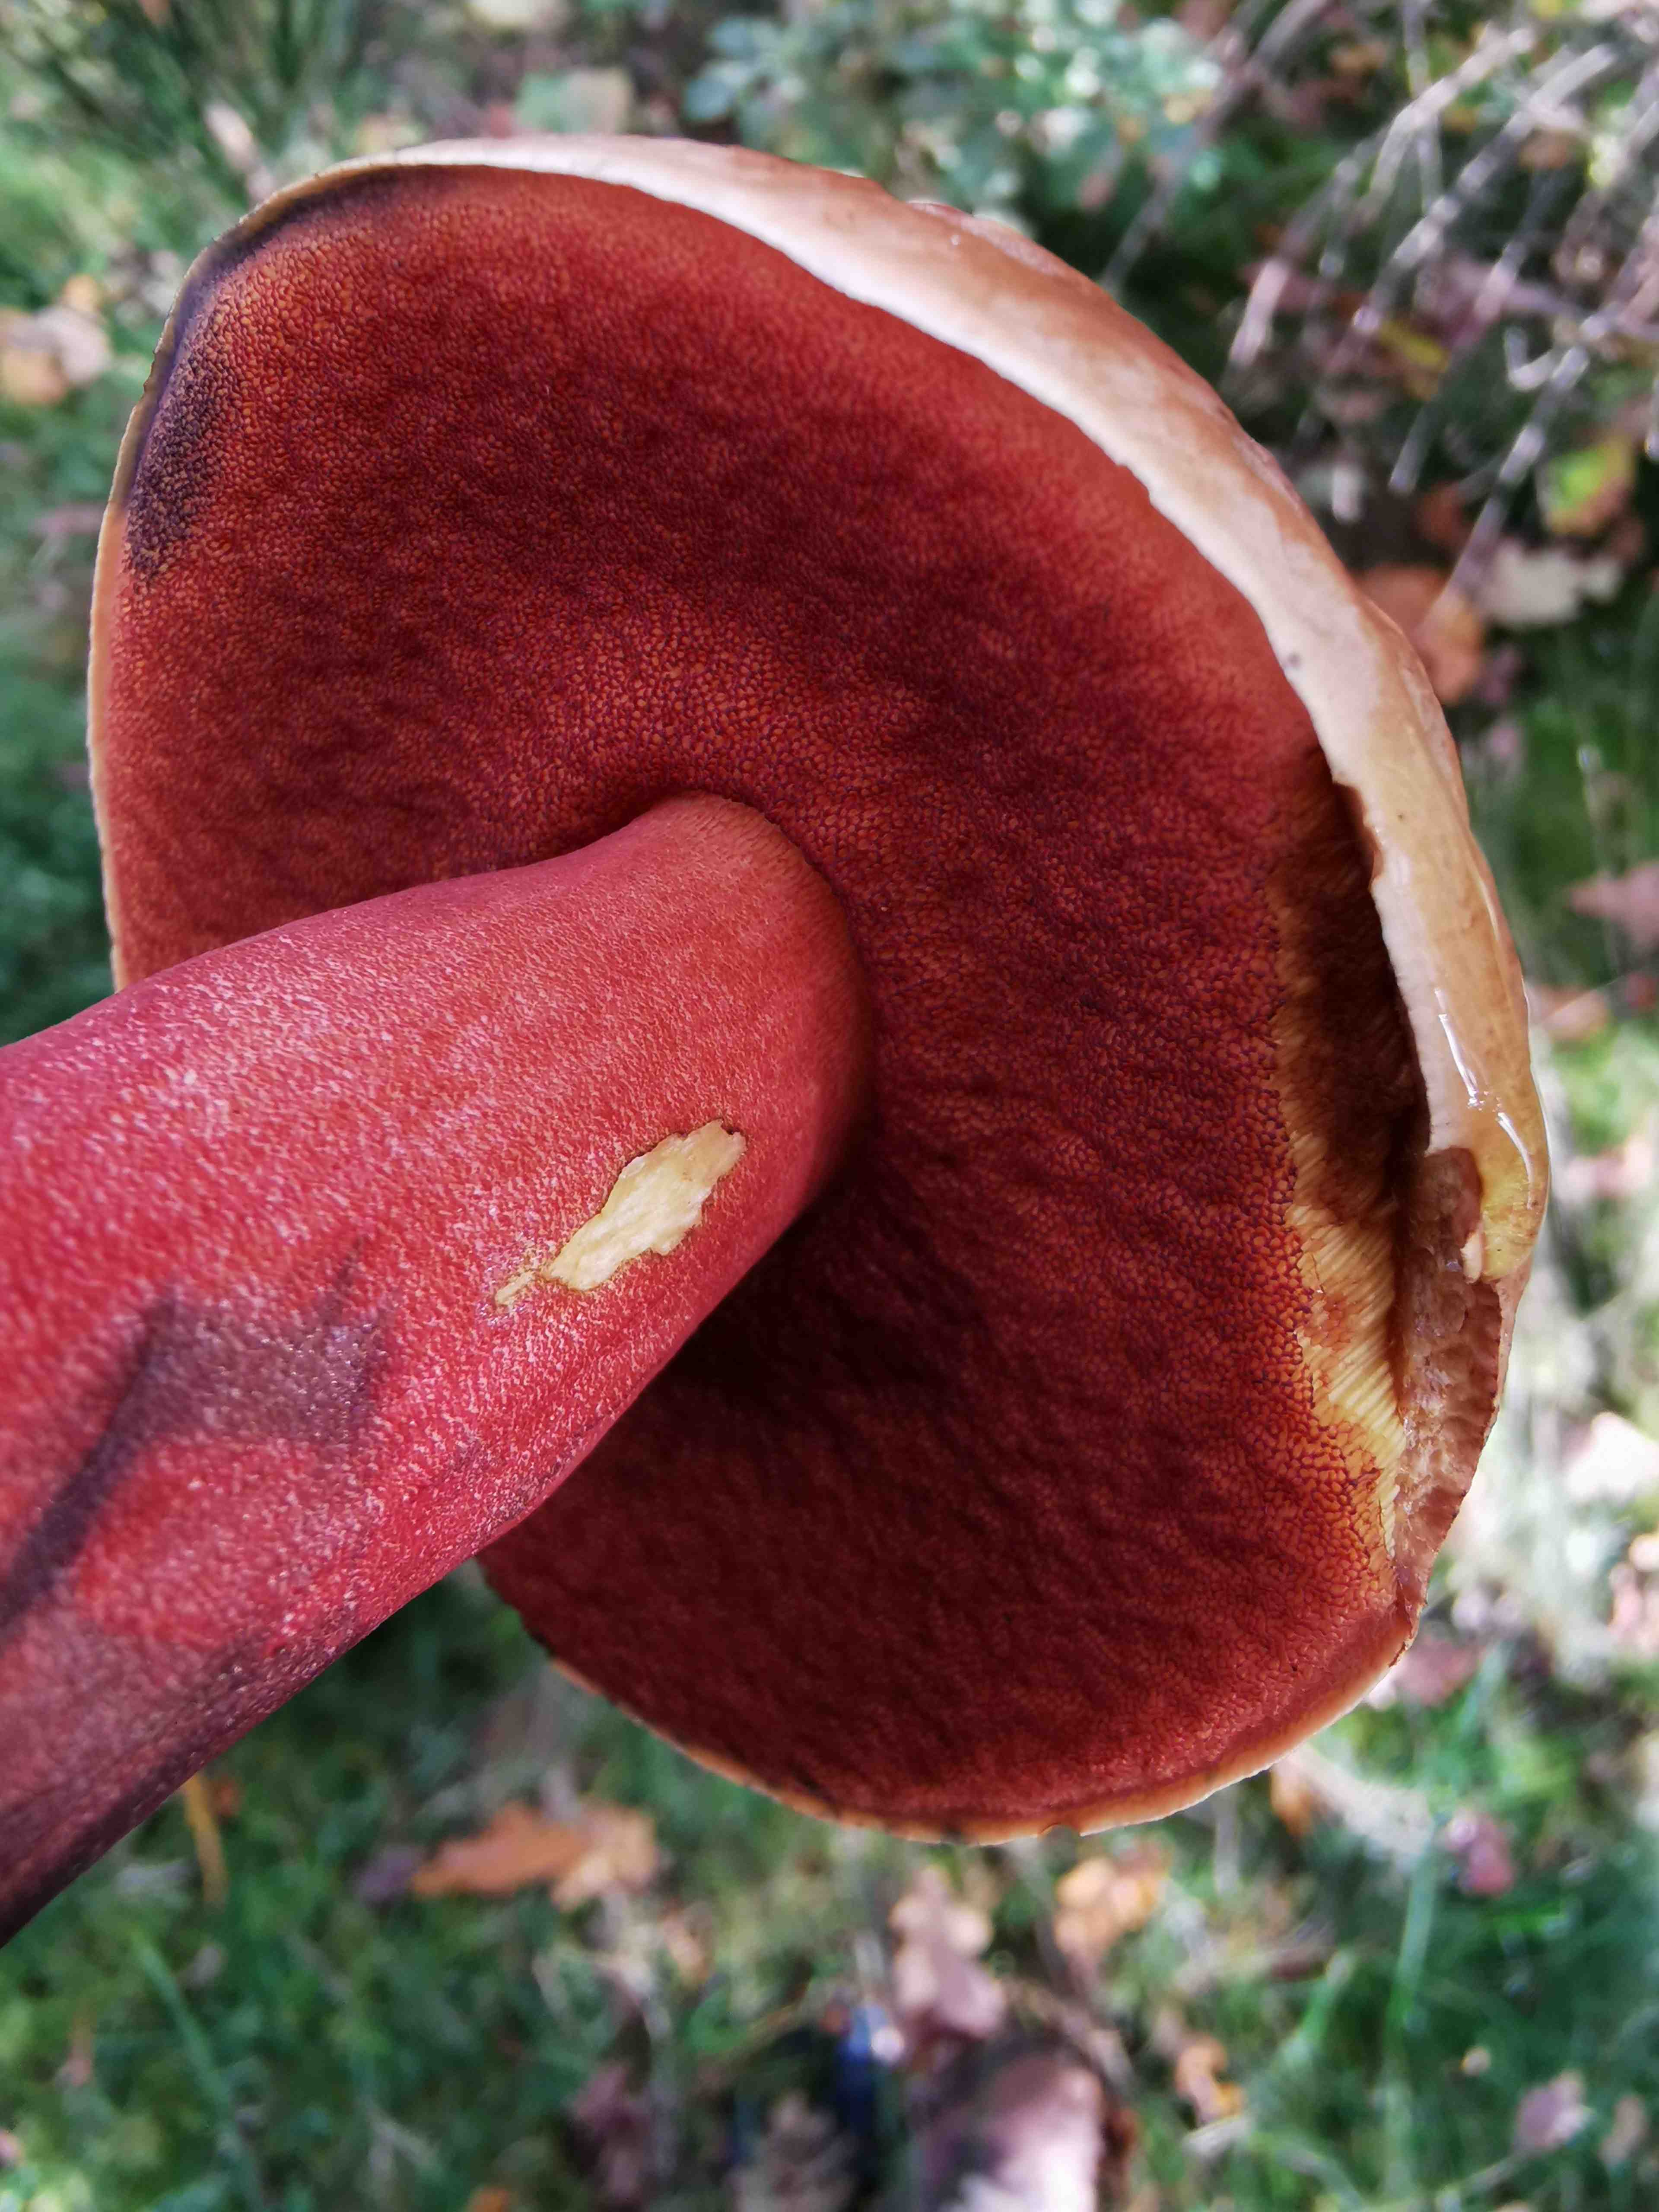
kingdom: Fungi
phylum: Basidiomycota
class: Agaricomycetes
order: Boletales
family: Boletaceae
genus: Neoboletus
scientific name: Neoboletus erythropus
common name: punktstokket indigorørhat
